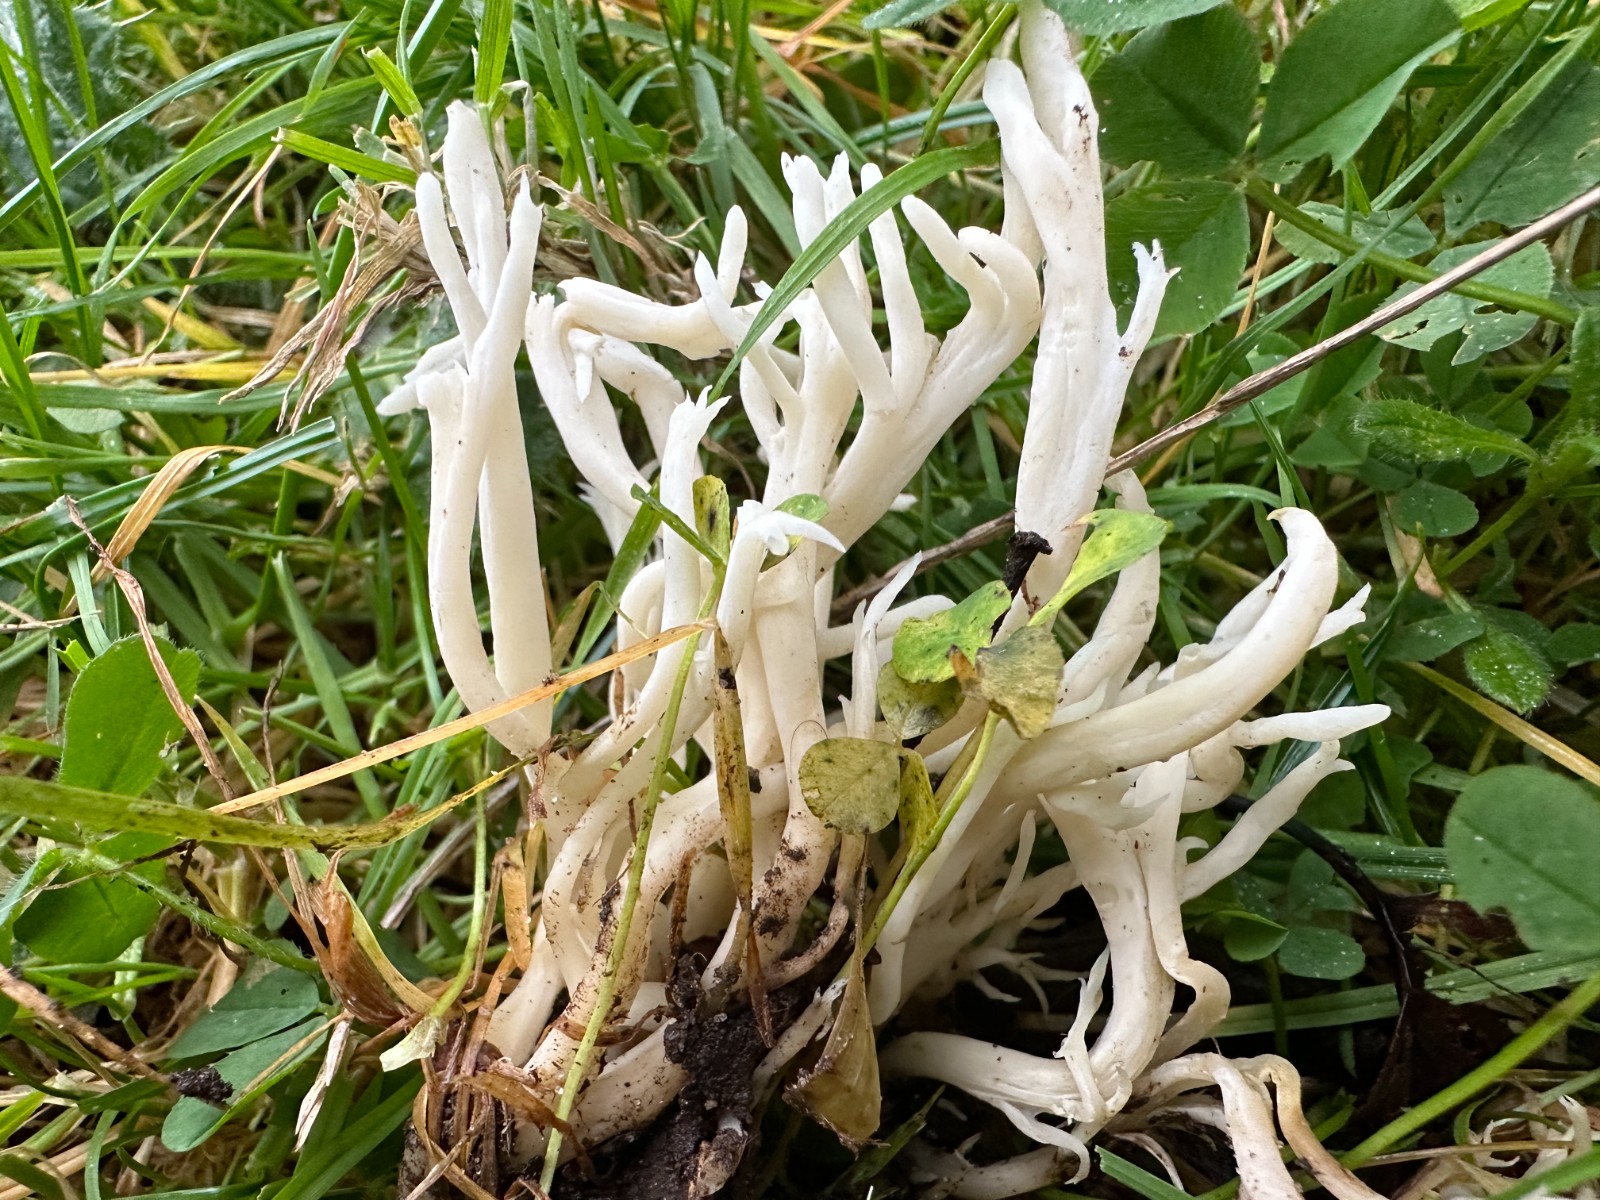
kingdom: Fungi
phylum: Basidiomycota
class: Agaricomycetes
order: Agaricales
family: Clavariaceae
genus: Ramariopsis
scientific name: Ramariopsis
